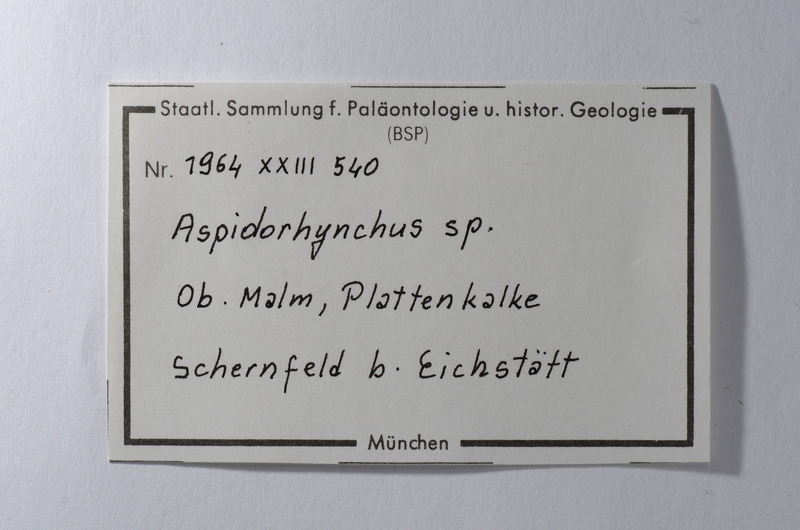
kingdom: Animalia
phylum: Chordata
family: Aspidorhynchidae
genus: Aspidorhynchus
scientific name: Aspidorhynchus
